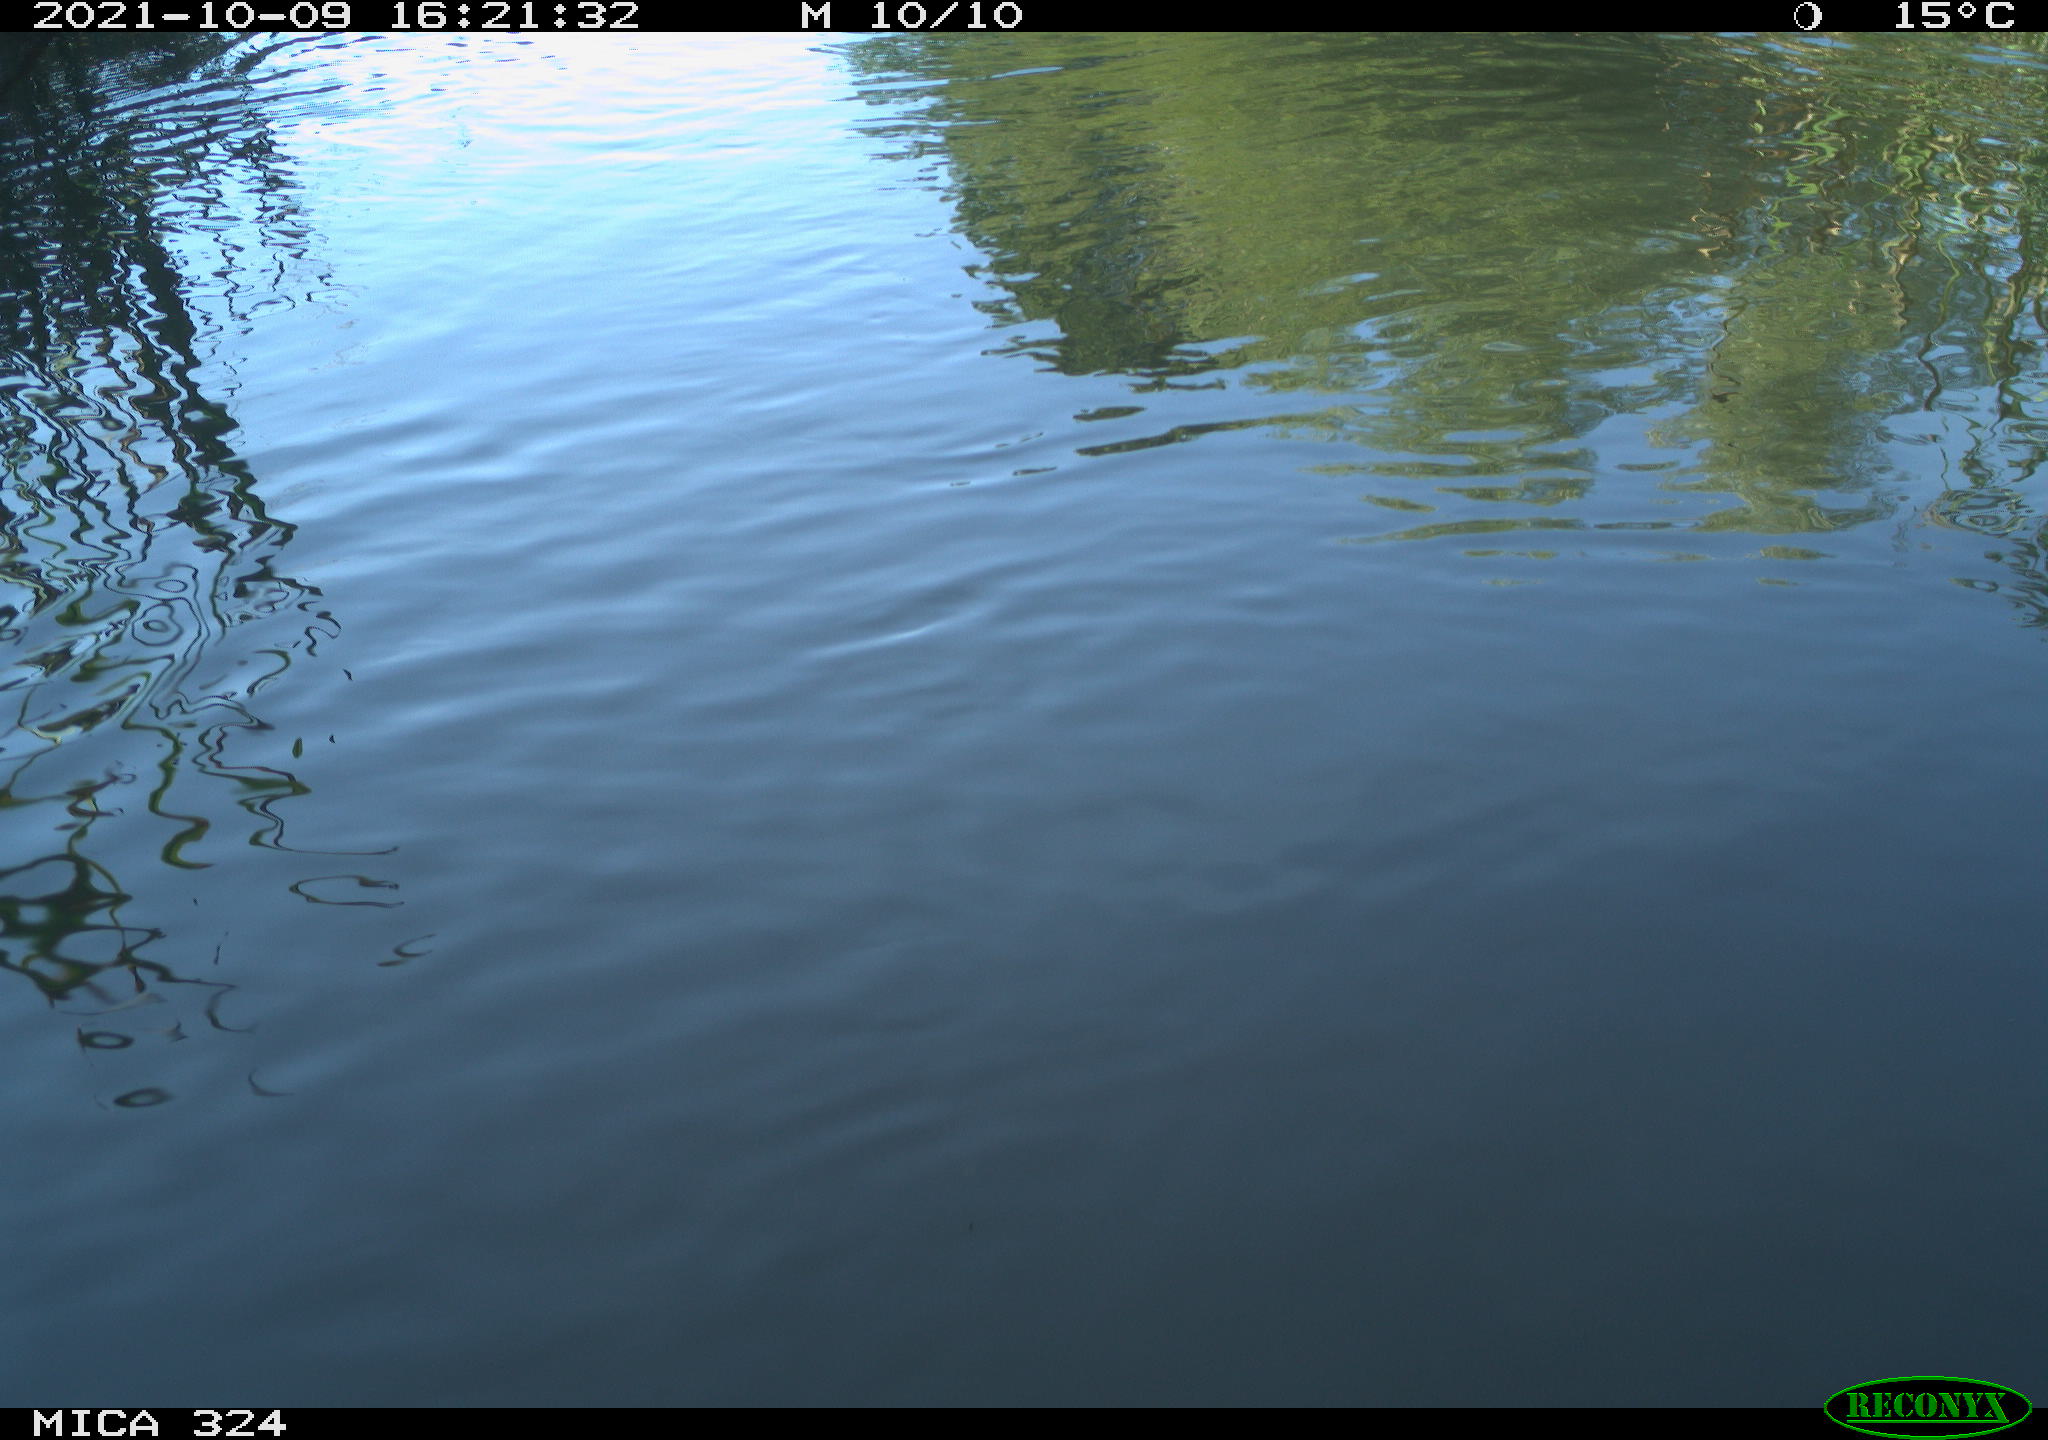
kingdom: Animalia
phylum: Chordata
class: Mammalia
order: Rodentia
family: Cricetidae
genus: Ondatra
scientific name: Ondatra zibethicus
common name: Muskrat
